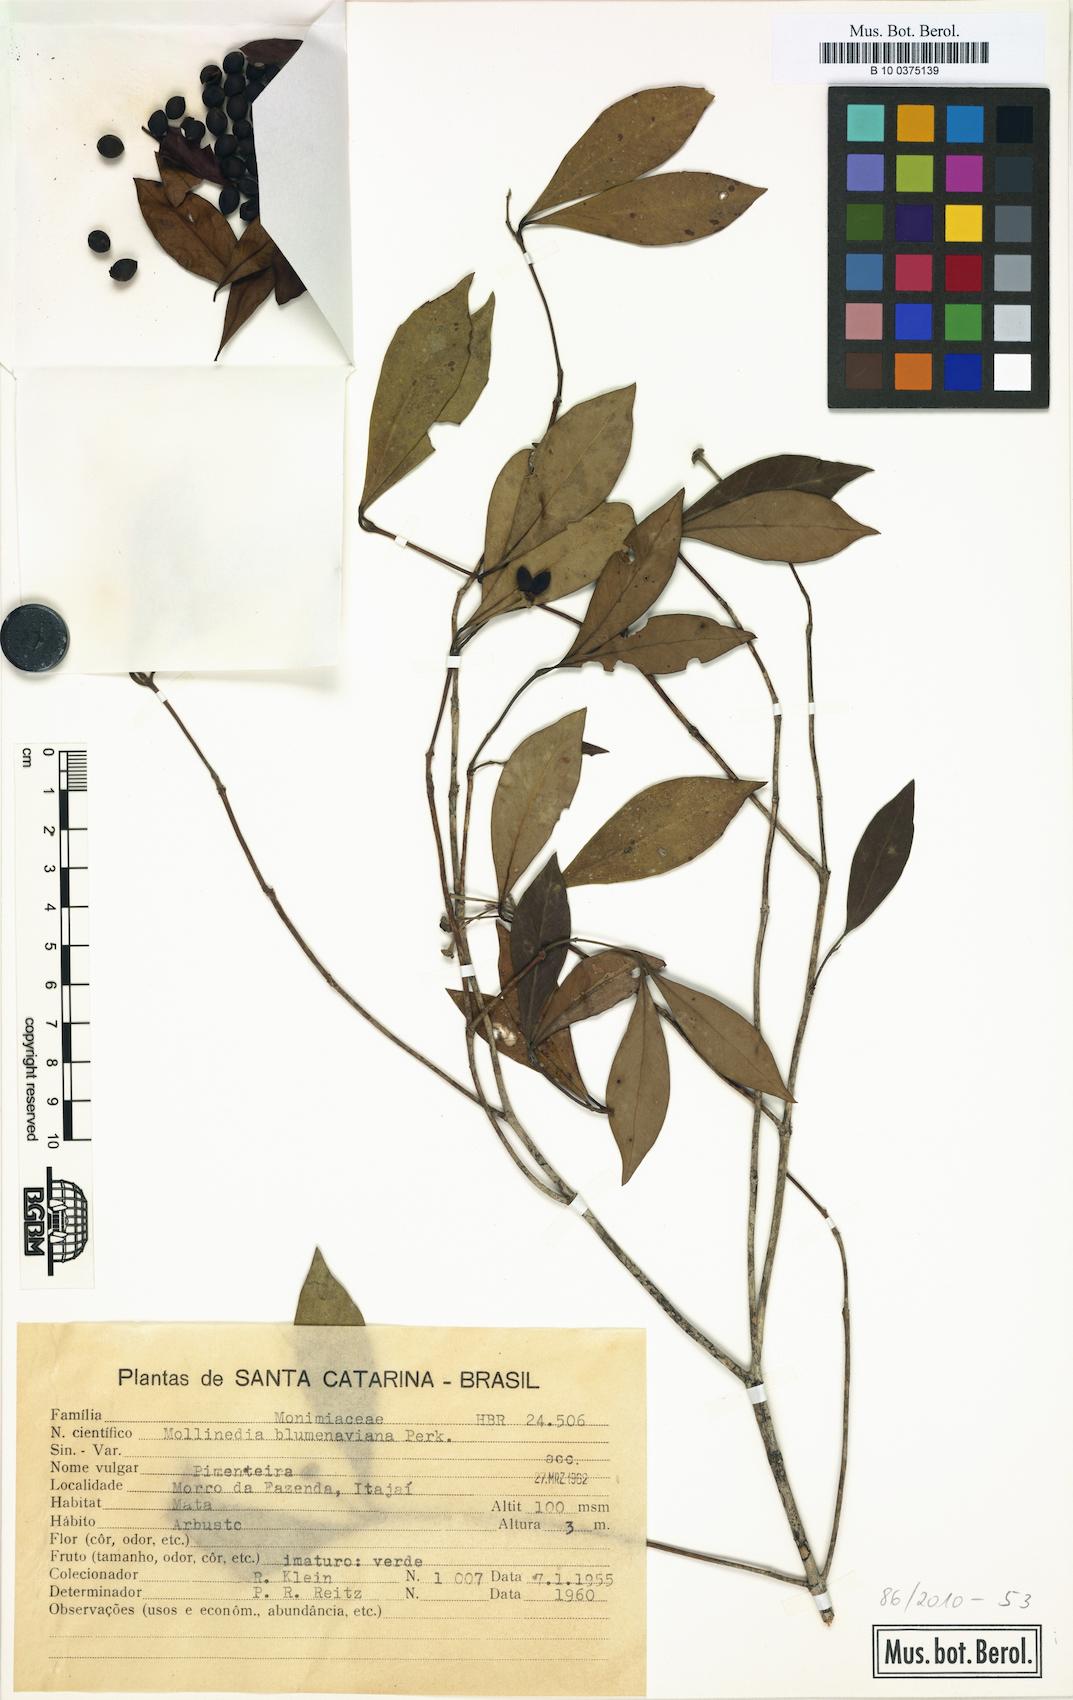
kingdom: Plantae
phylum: Tracheophyta
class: Magnoliopsida
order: Laurales
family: Monimiaceae
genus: Mollinedia
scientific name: Mollinedia clavigera
